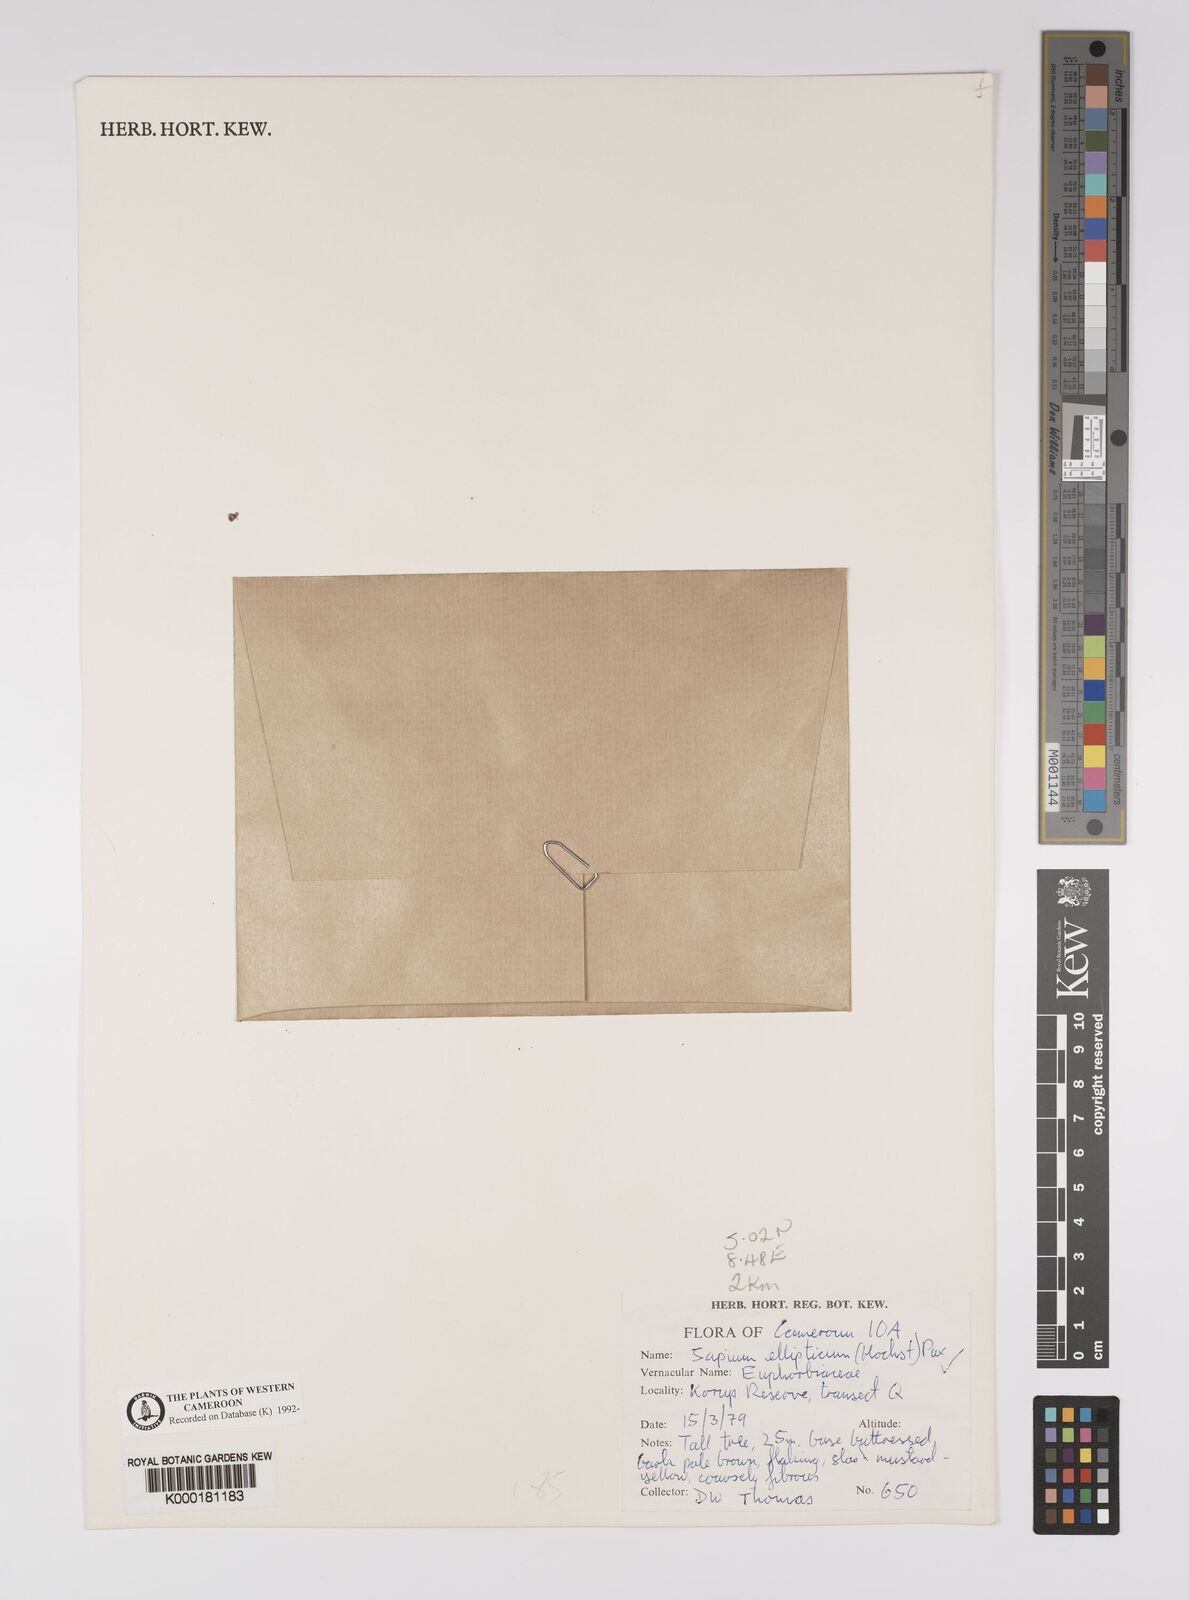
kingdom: Plantae
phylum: Tracheophyta
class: Magnoliopsida
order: Malpighiales
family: Euphorbiaceae
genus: Shirakiopsis
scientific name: Shirakiopsis elliptica
